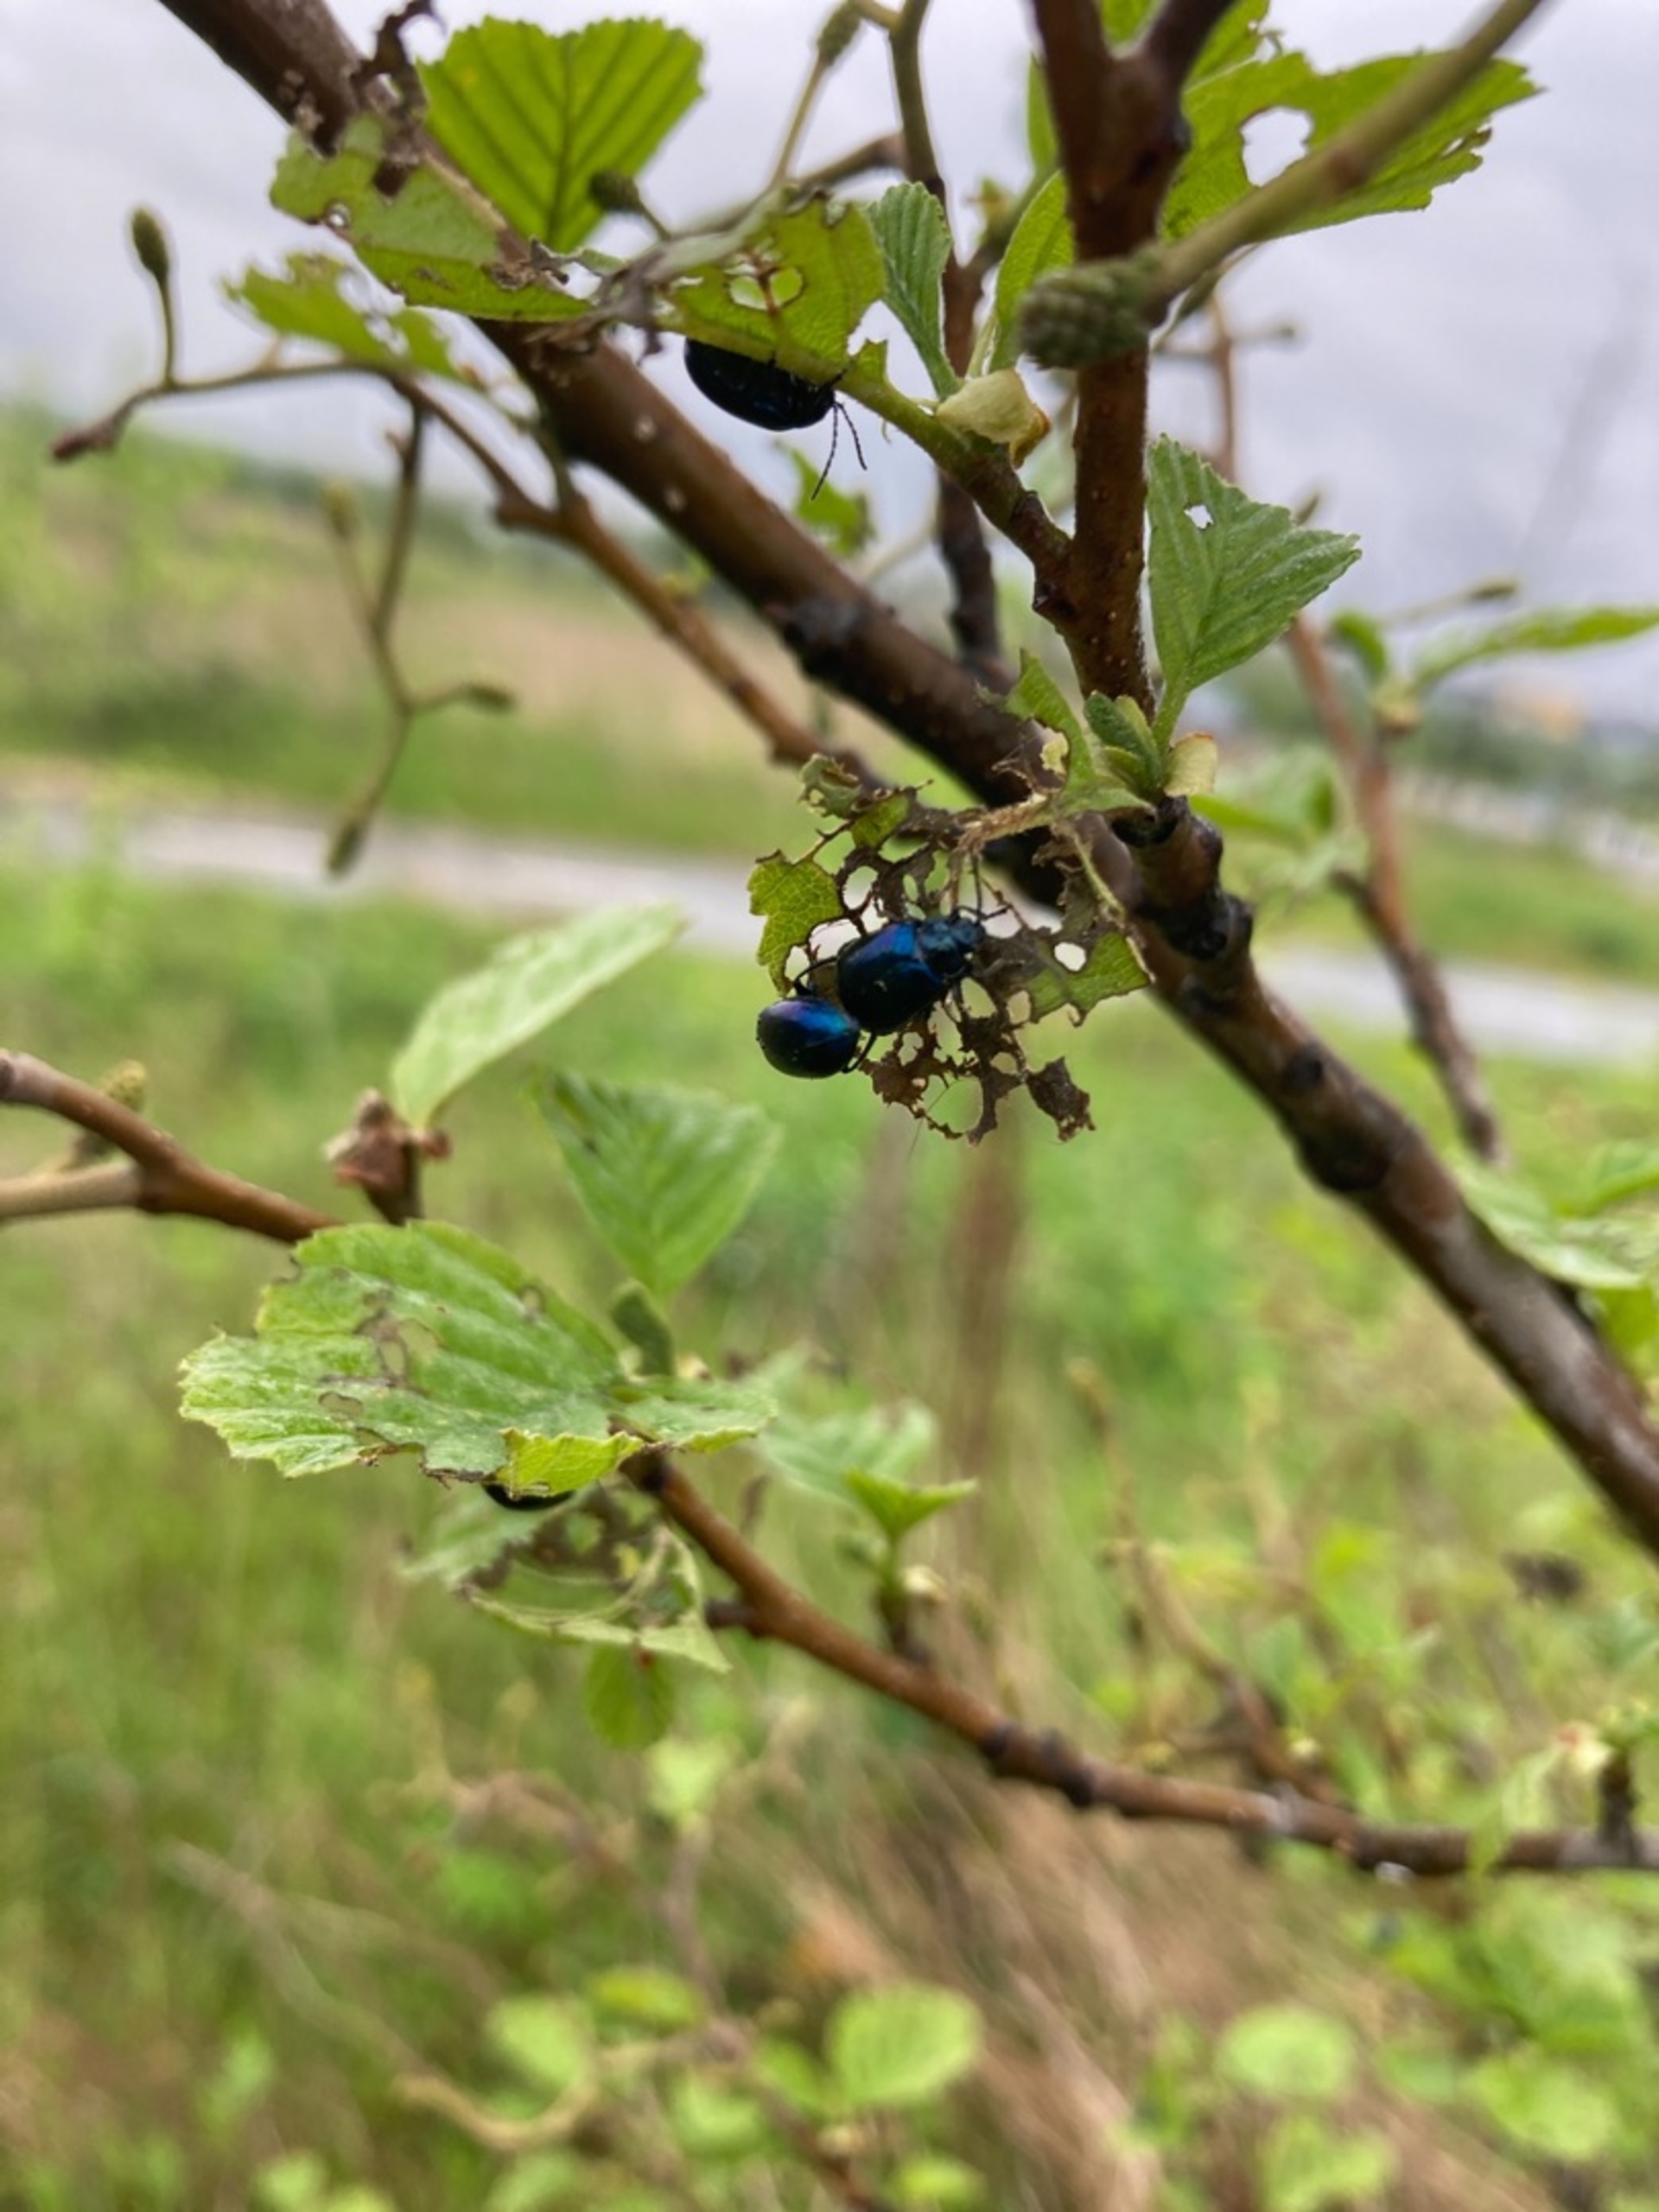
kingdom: Animalia
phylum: Arthropoda
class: Insecta
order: Coleoptera
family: Chrysomelidae
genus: Agelastica
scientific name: Agelastica alni
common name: Ellebladbille
